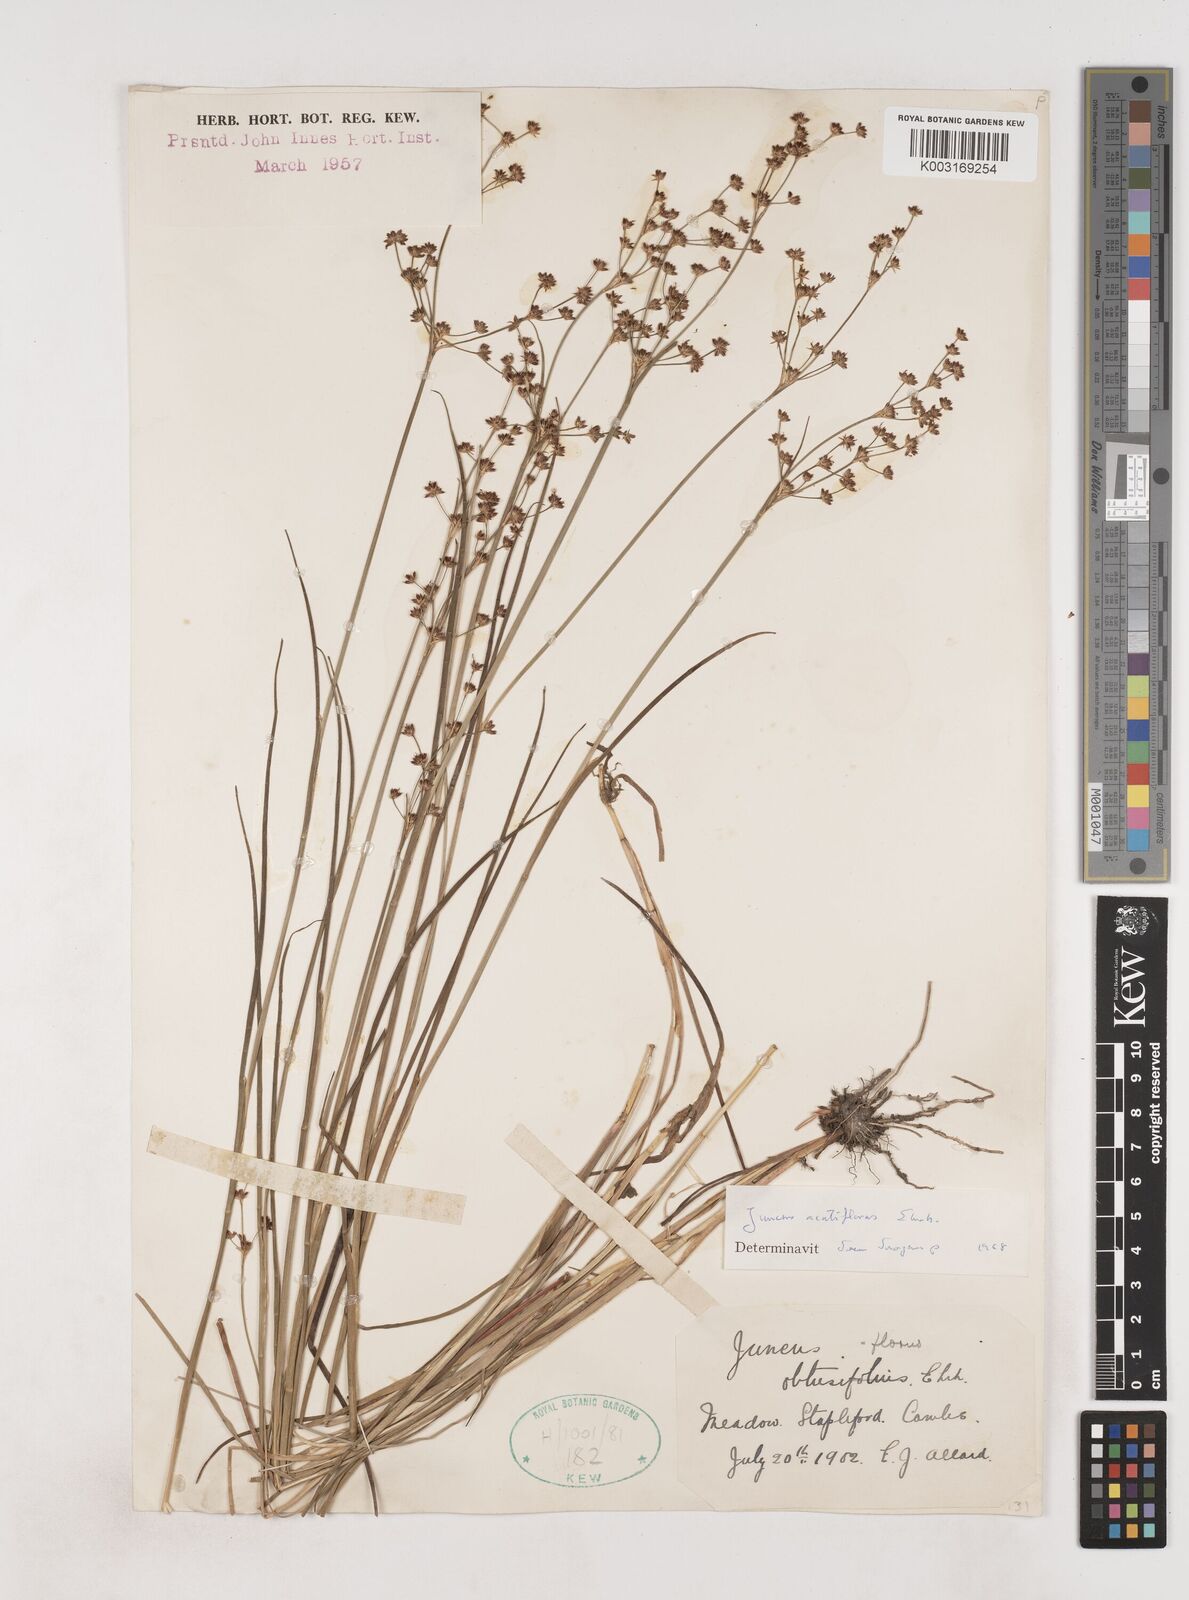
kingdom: Plantae
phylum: Tracheophyta
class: Liliopsida
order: Poales
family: Juncaceae
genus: Juncus
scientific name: Juncus acutiflorus
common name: Sharp-flowered rush
